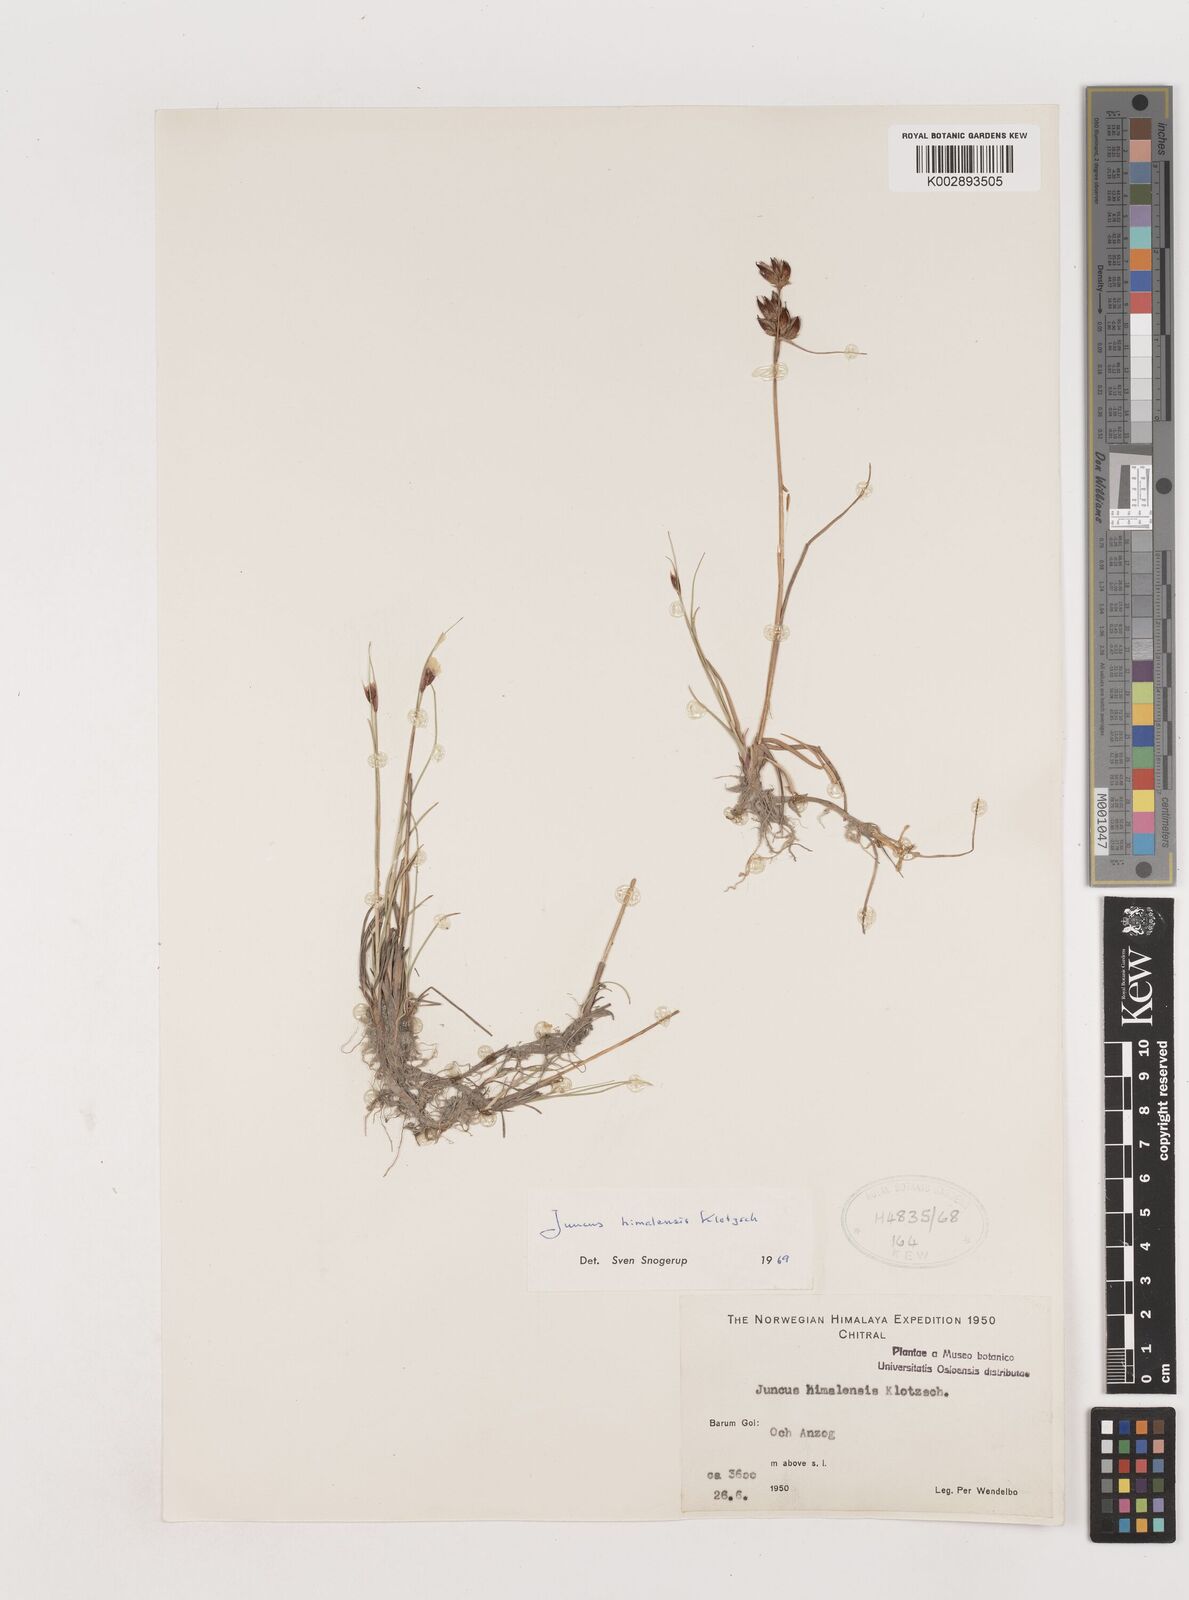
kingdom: Plantae
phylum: Tracheophyta
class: Liliopsida
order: Poales
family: Juncaceae
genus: Juncus
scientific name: Juncus himalensis
